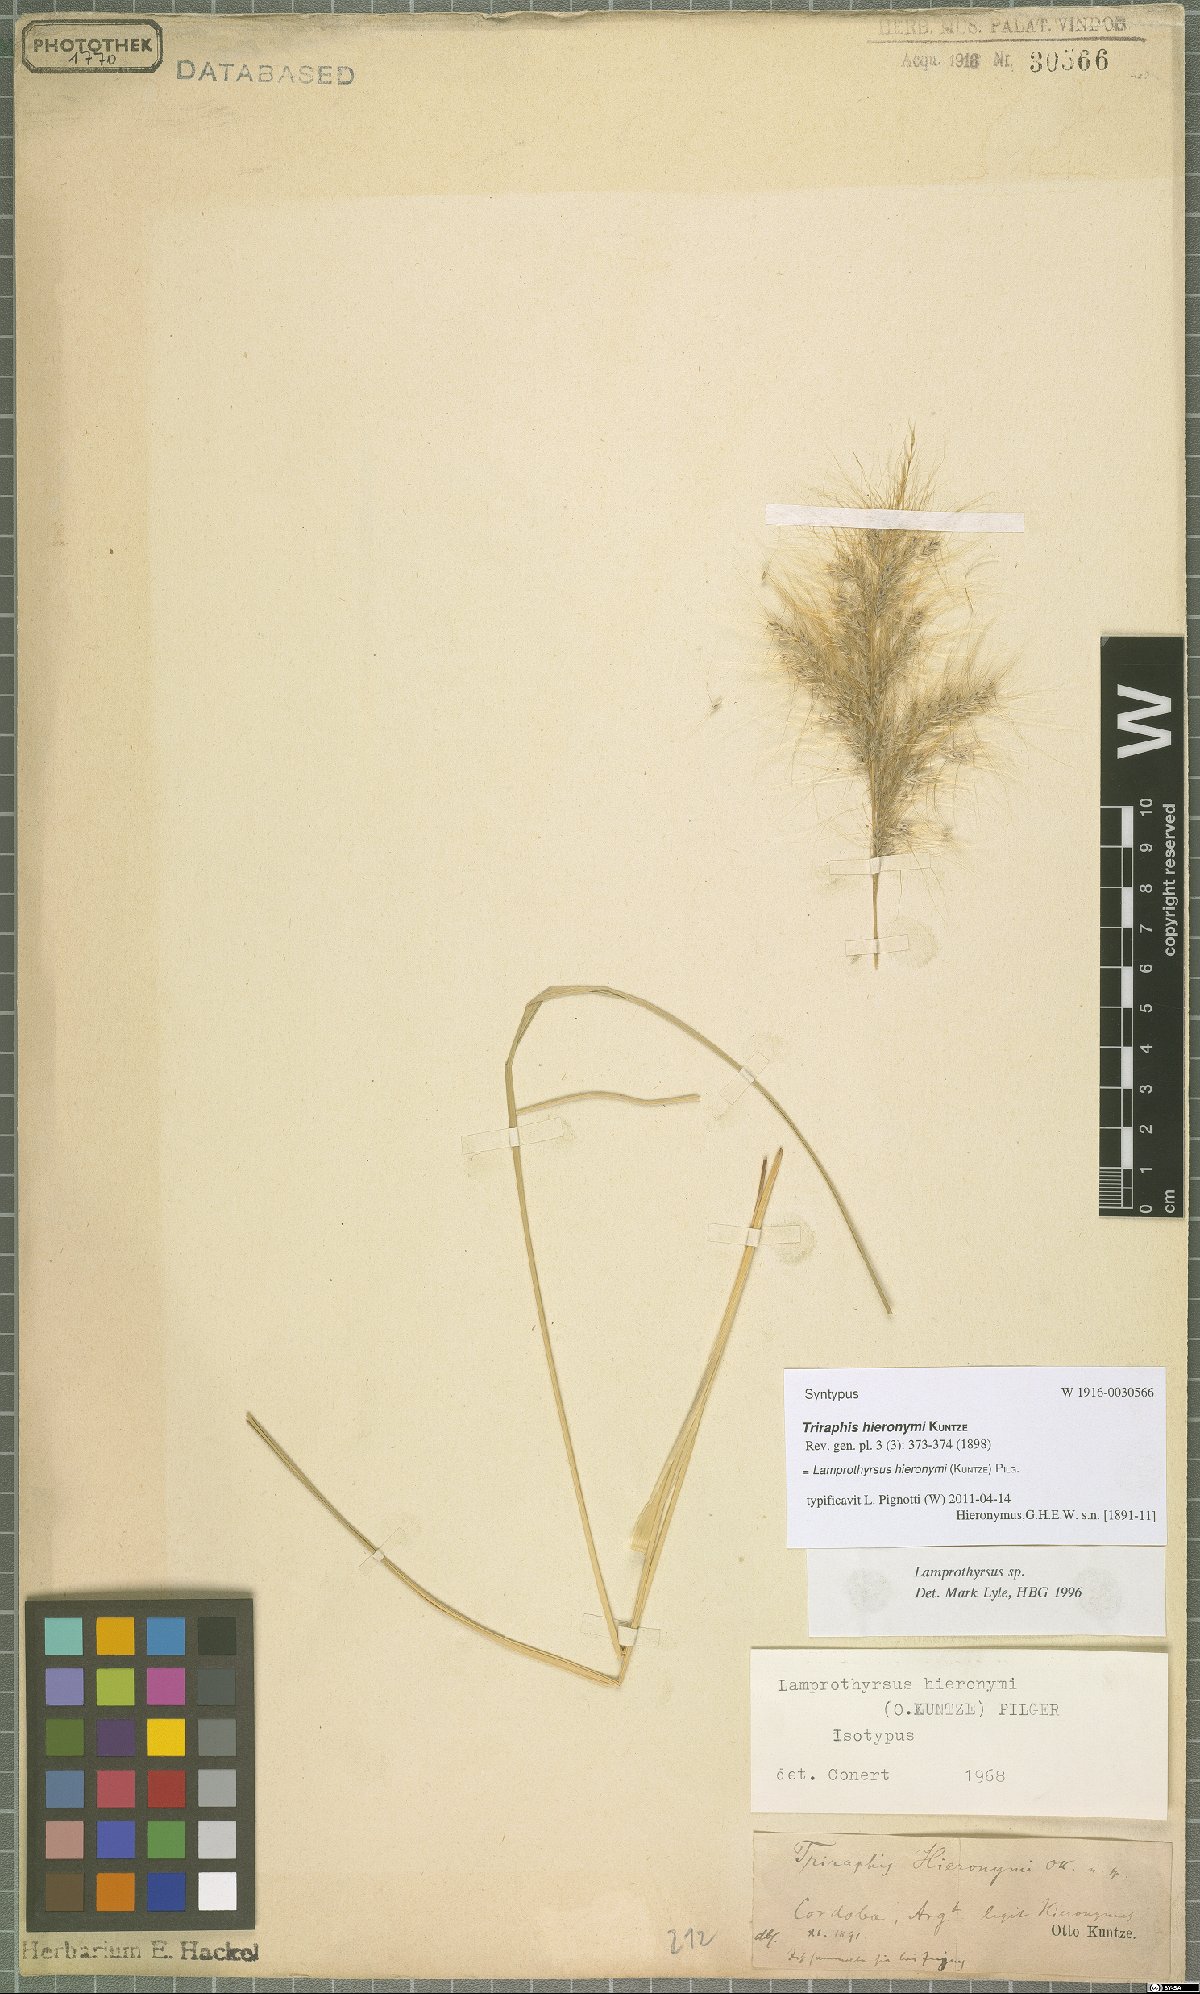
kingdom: Plantae
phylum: Tracheophyta
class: Liliopsida
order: Poales
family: Poaceae
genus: Cortaderia
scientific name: Cortaderia hieronymi
